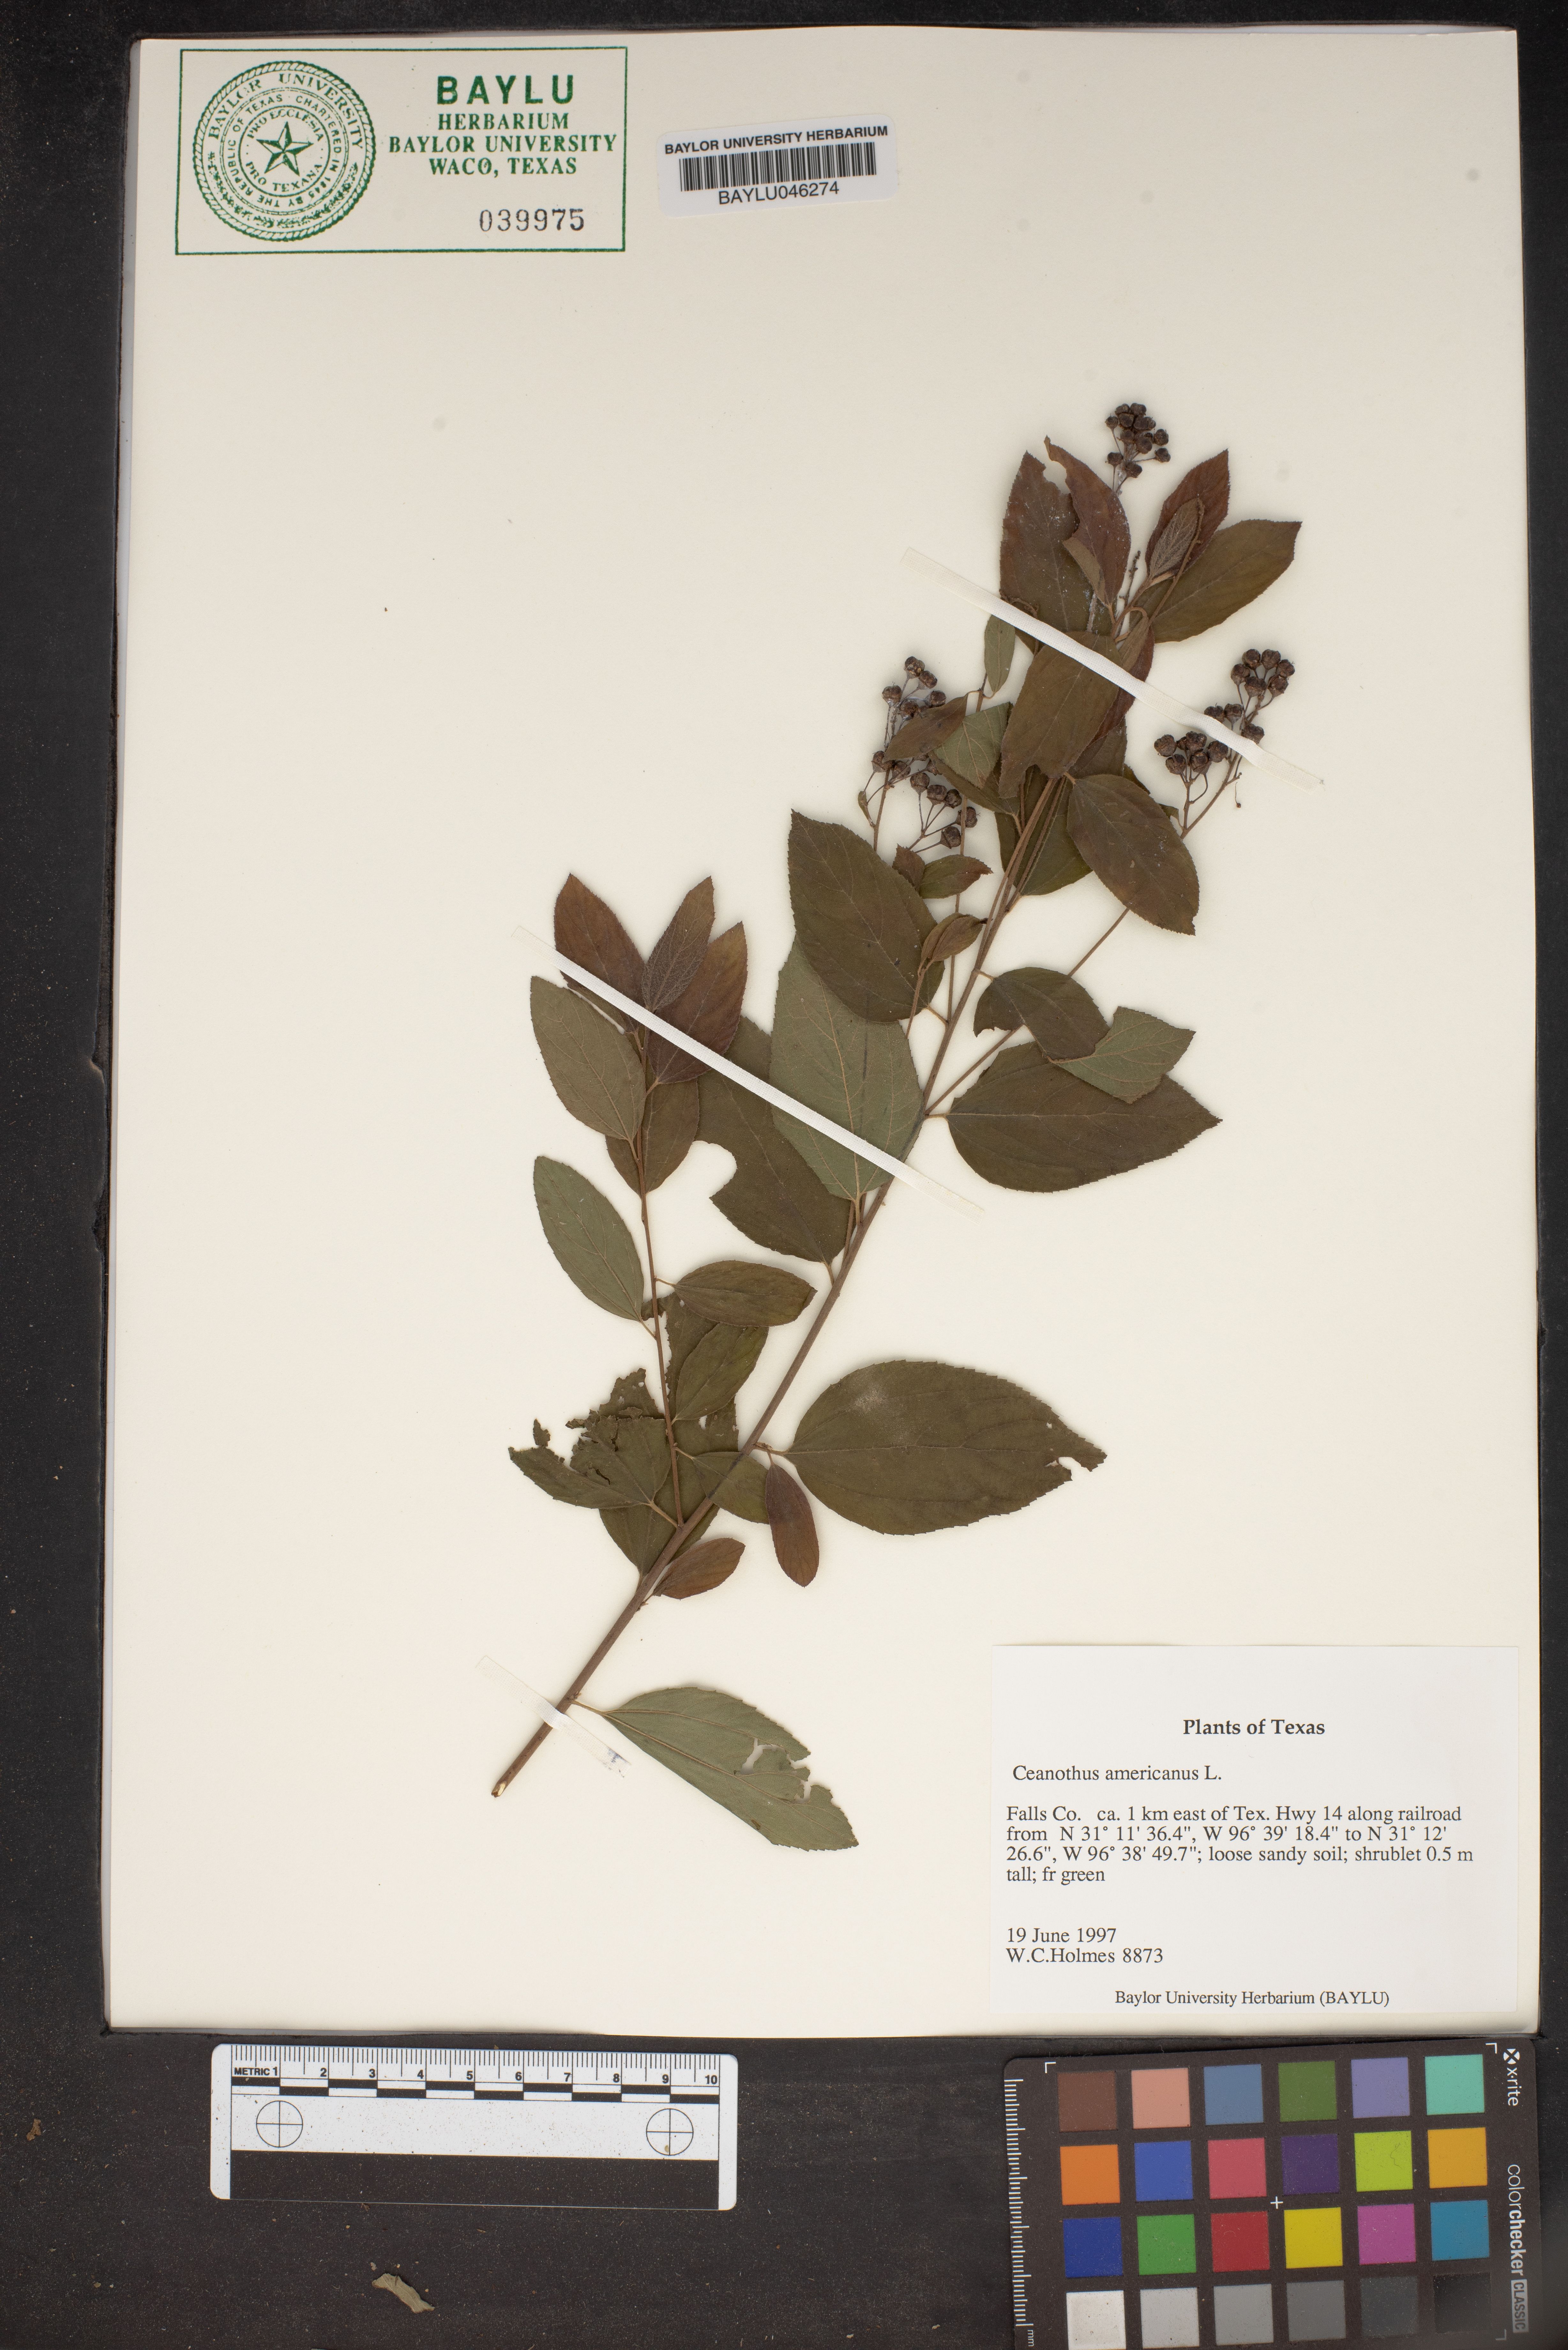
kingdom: Plantae
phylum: Tracheophyta
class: Magnoliopsida
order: Rosales
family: Rhamnaceae
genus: Ceanothus
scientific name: Ceanothus americanus
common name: Redroot
